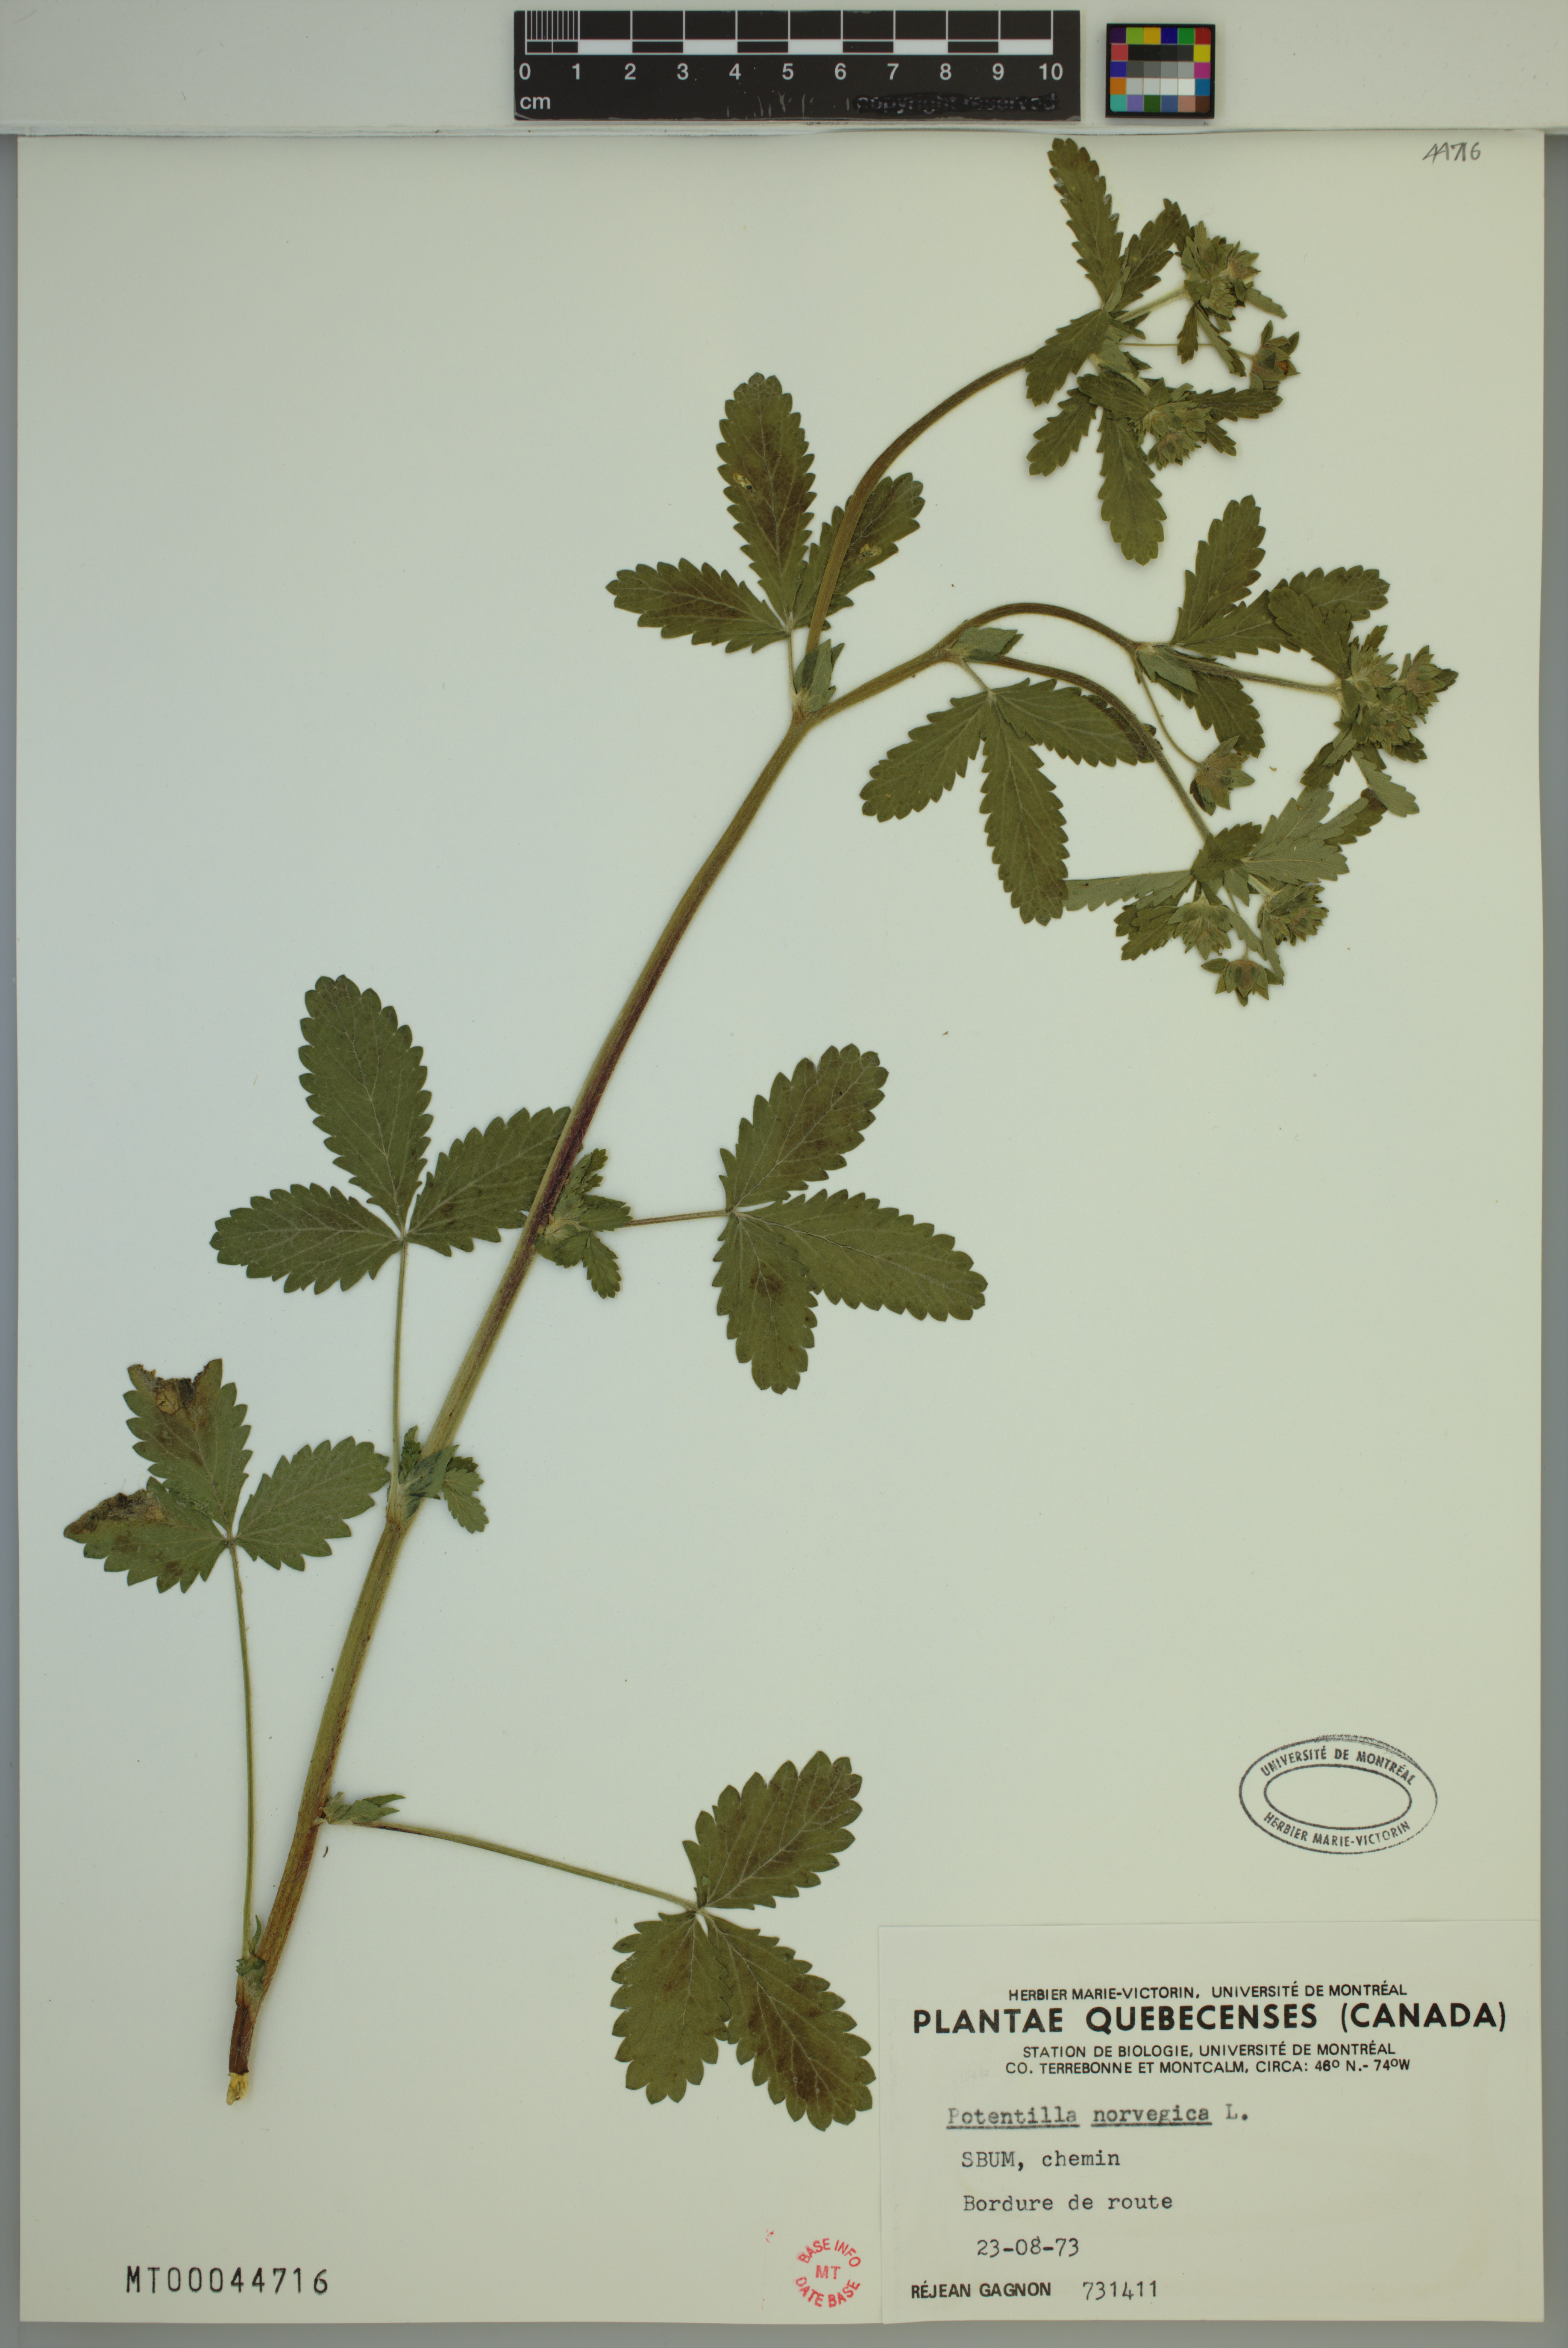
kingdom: Plantae
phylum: Tracheophyta
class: Magnoliopsida
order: Rosales
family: Rosaceae
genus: Potentilla
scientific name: Potentilla norvegica
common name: Ternate-leaved cinquefoil
